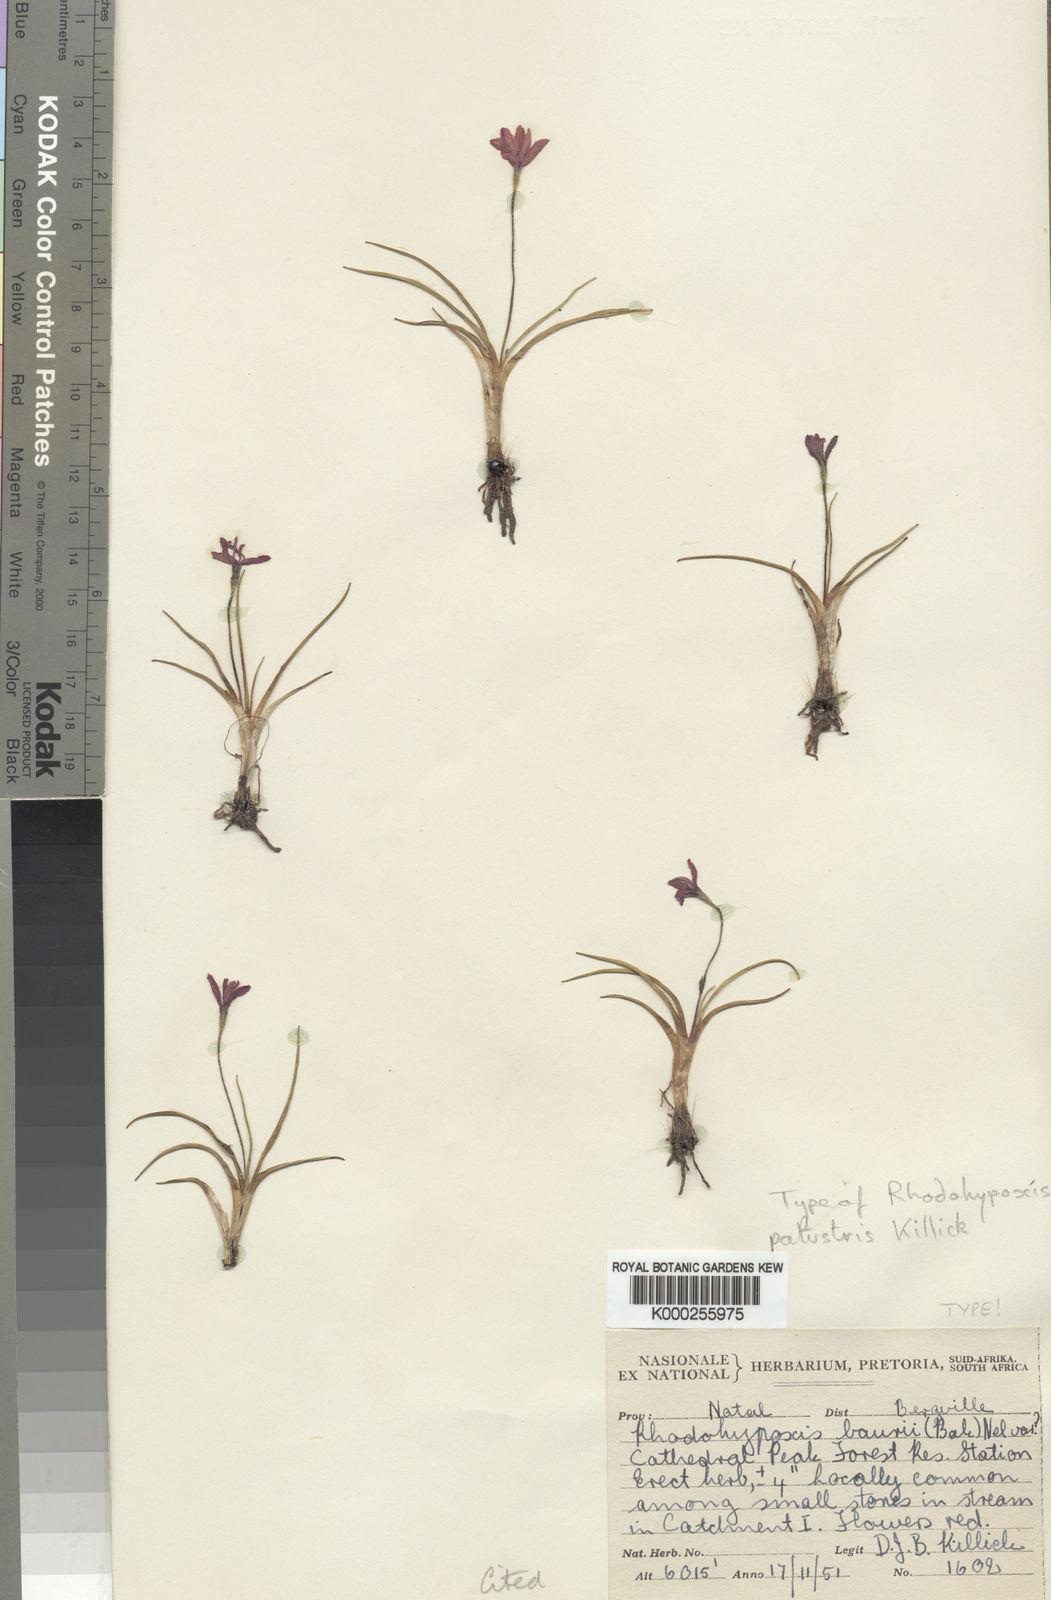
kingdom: Plantae
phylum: Tracheophyta
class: Liliopsida
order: Asparagales
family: Hypoxidaceae
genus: Hypoxis
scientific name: Hypoxis milloides
